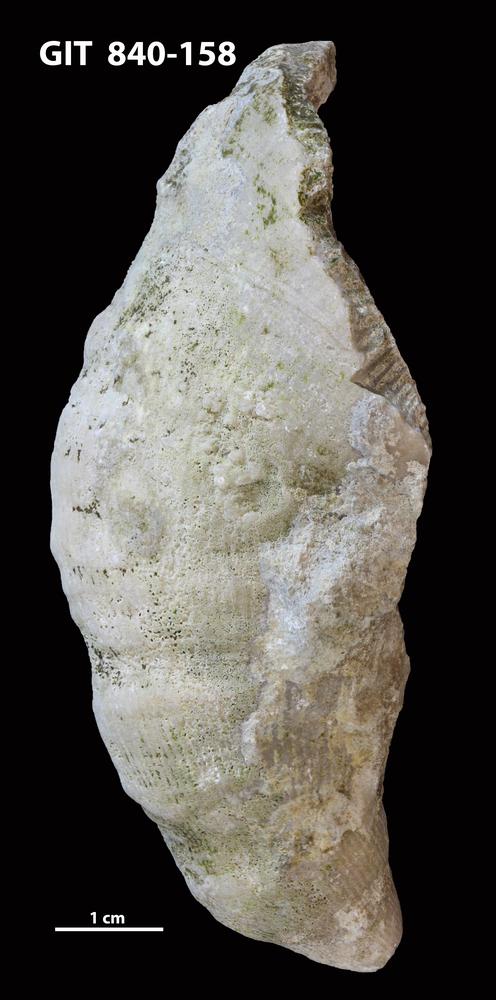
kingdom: Animalia
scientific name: Animalia
